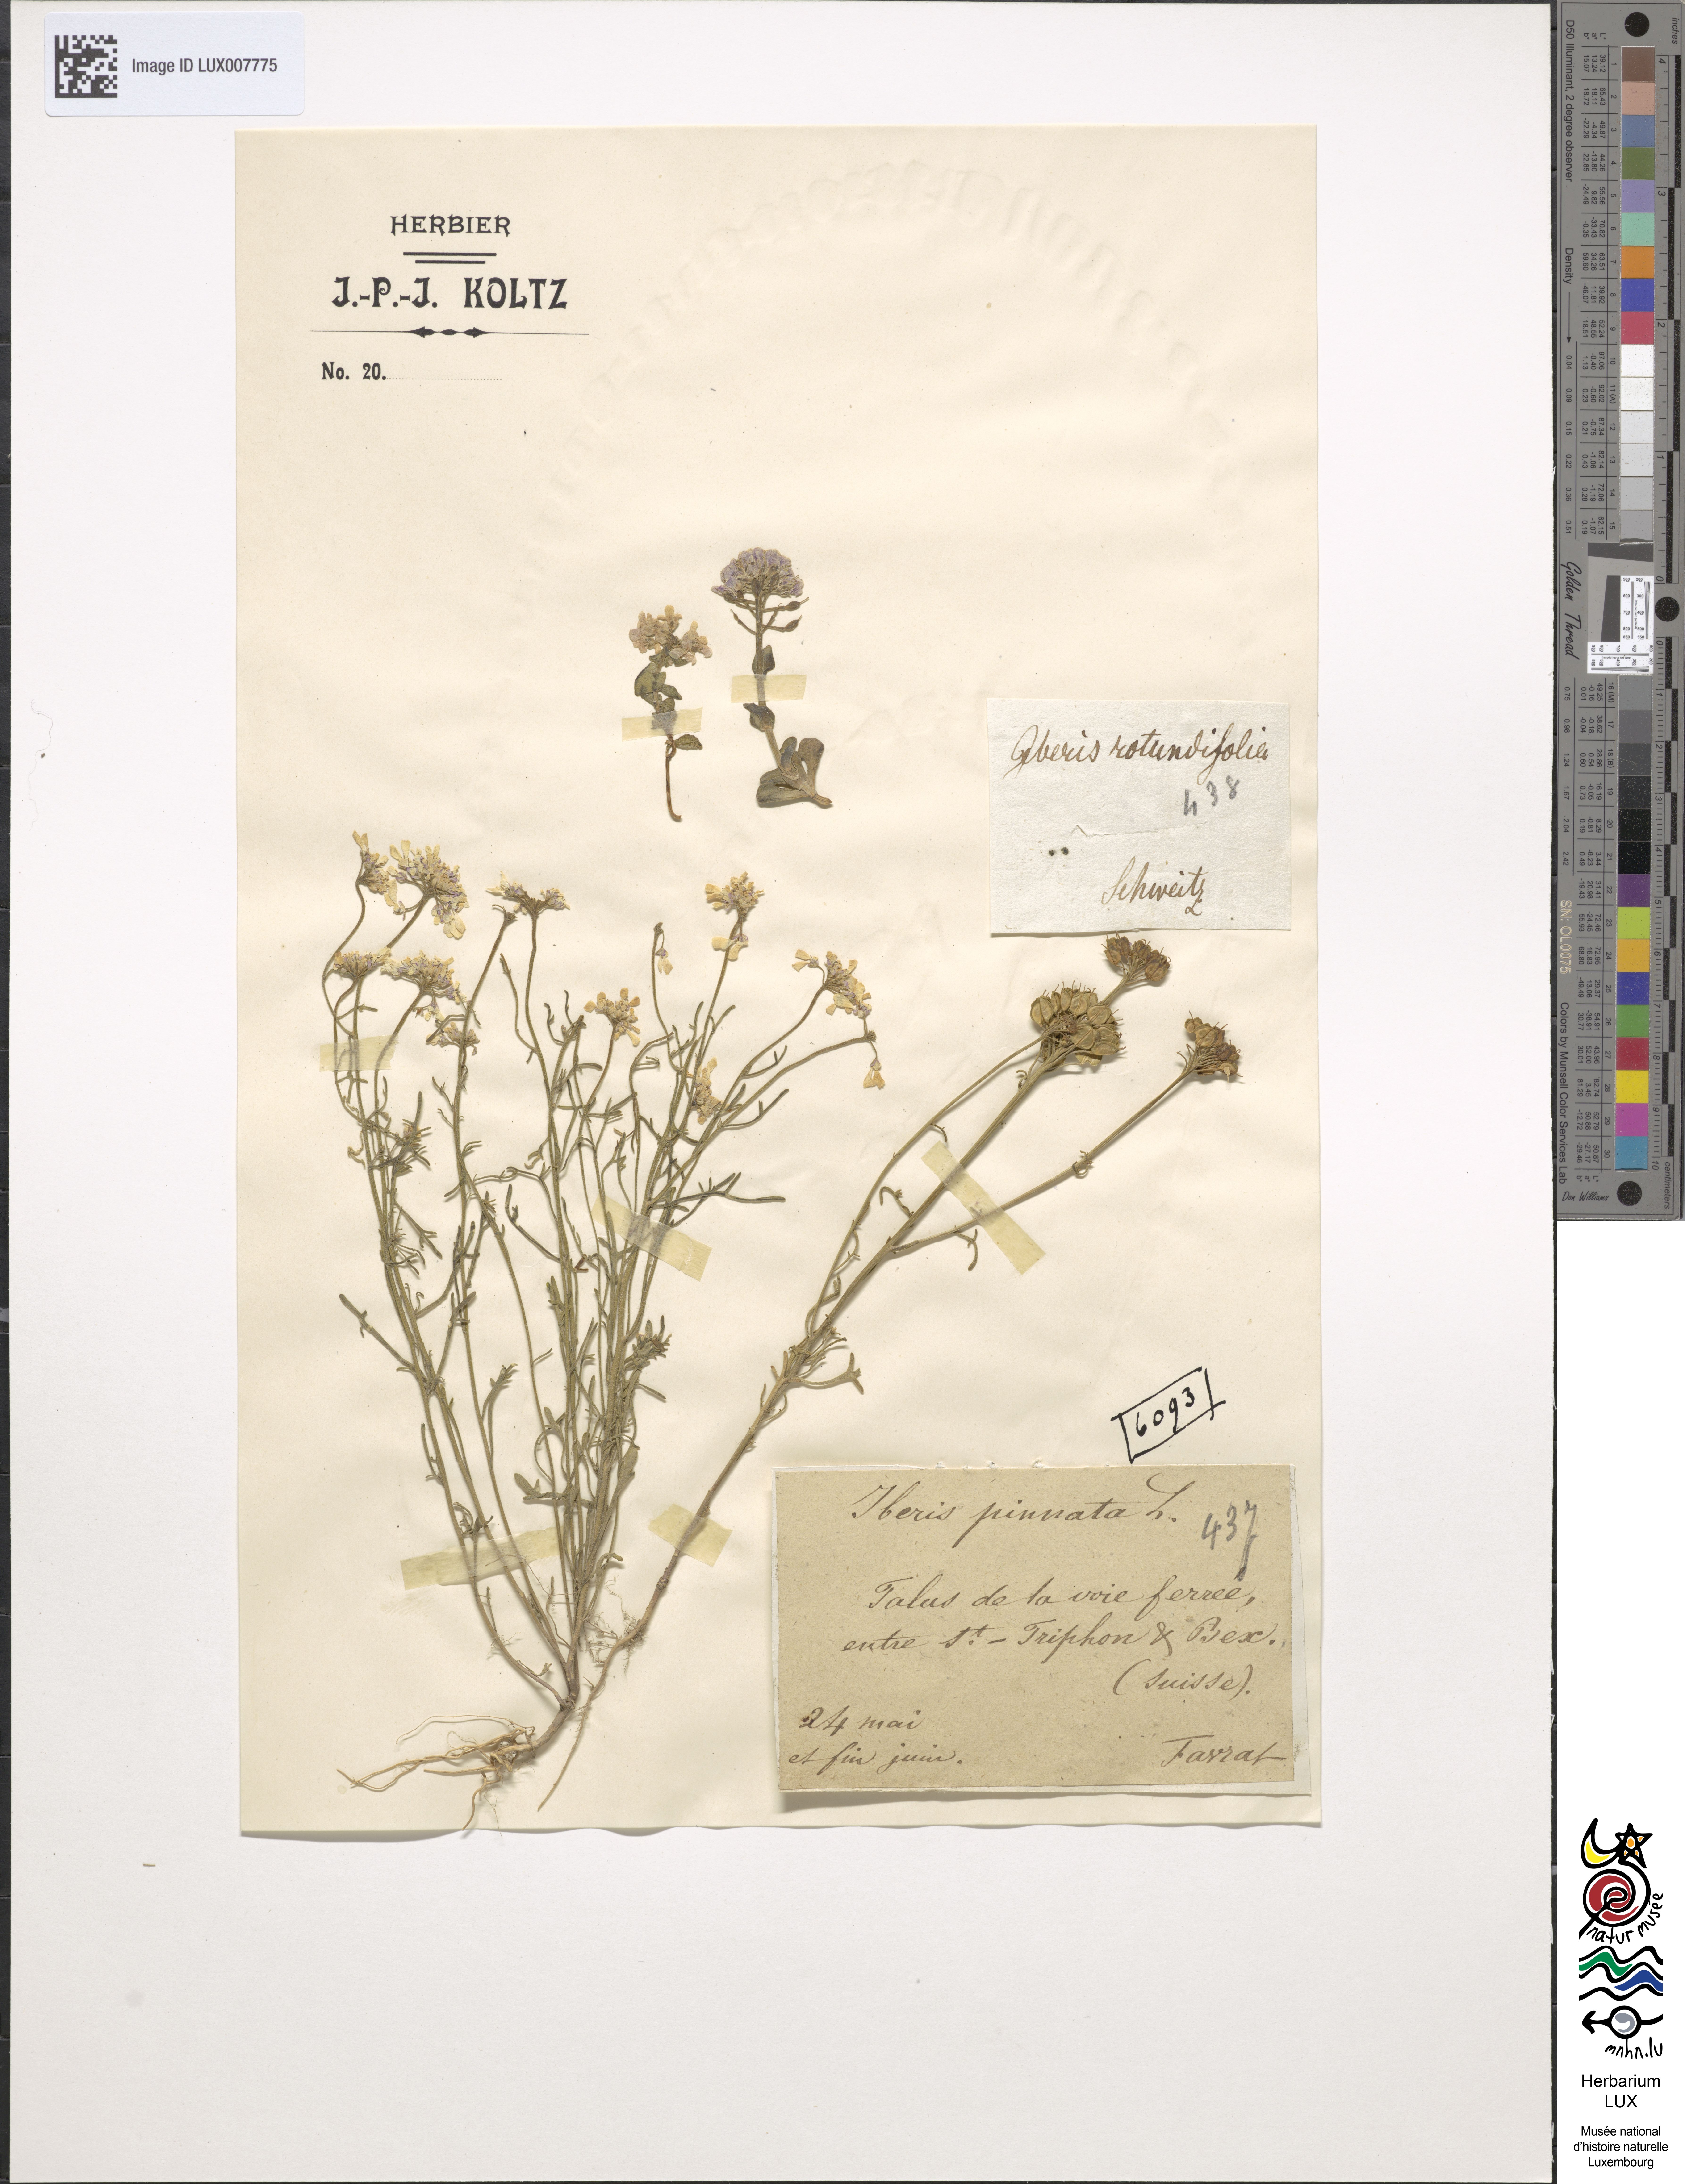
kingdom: Plantae
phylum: Tracheophyta
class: Magnoliopsida
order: Brassicales
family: Brassicaceae
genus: Iberis
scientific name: Iberis pinnata
